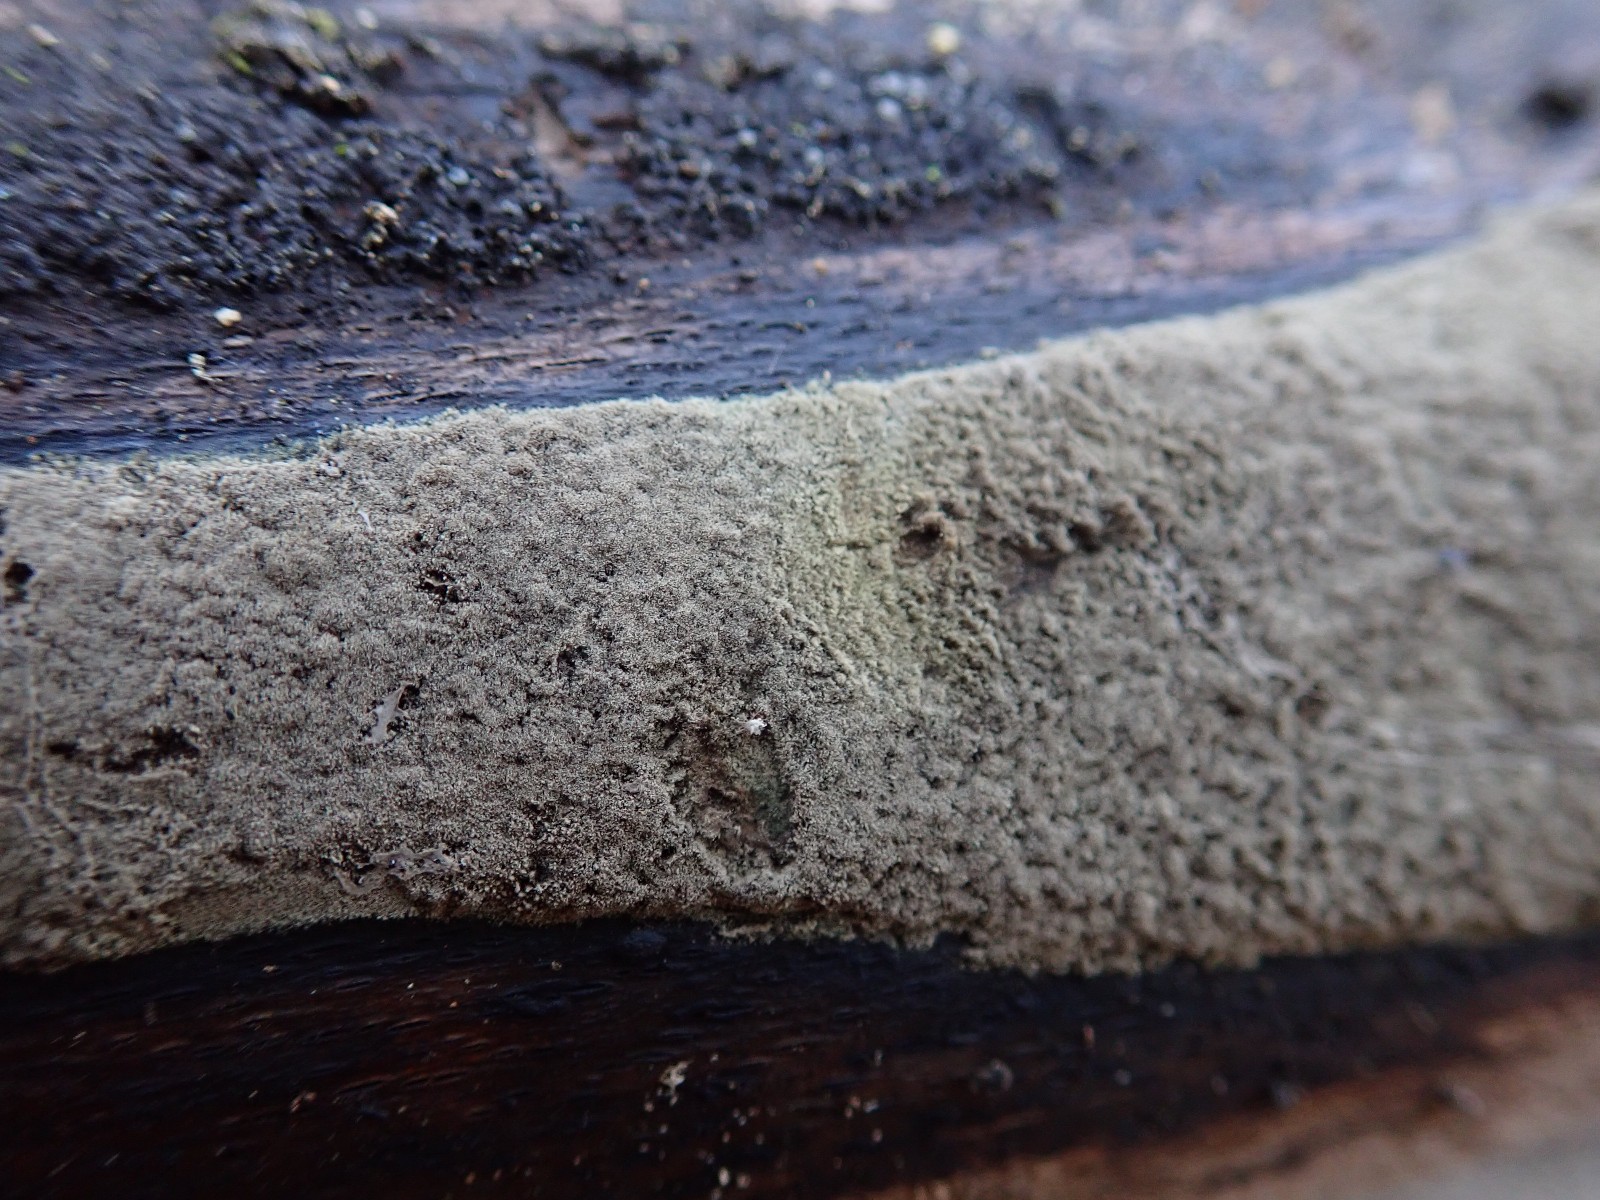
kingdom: Fungi
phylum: Ascomycota
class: Sordariomycetes
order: Xylariales
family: Hypoxylaceae
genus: Hypoxylon
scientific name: Hypoxylon
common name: kulbær
